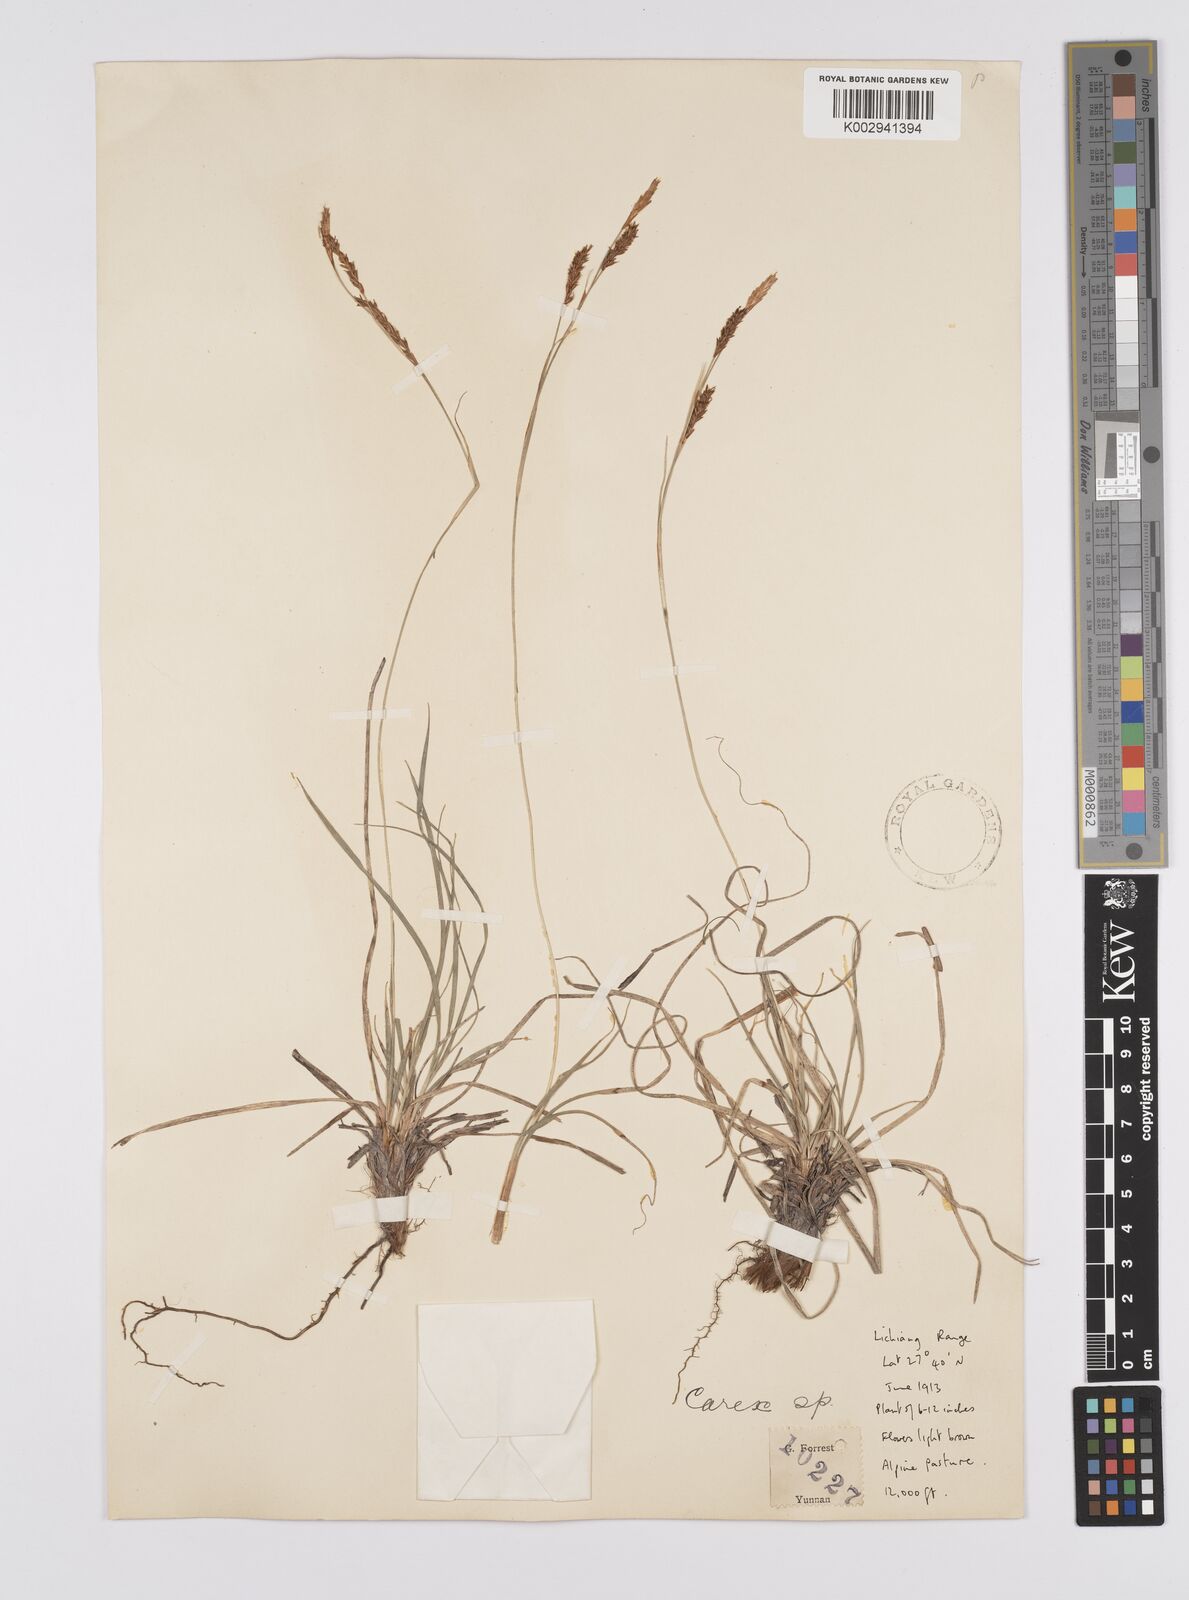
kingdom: Plantae
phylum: Tracheophyta
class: Liliopsida
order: Poales
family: Cyperaceae
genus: Carex
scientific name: Carex laeta
